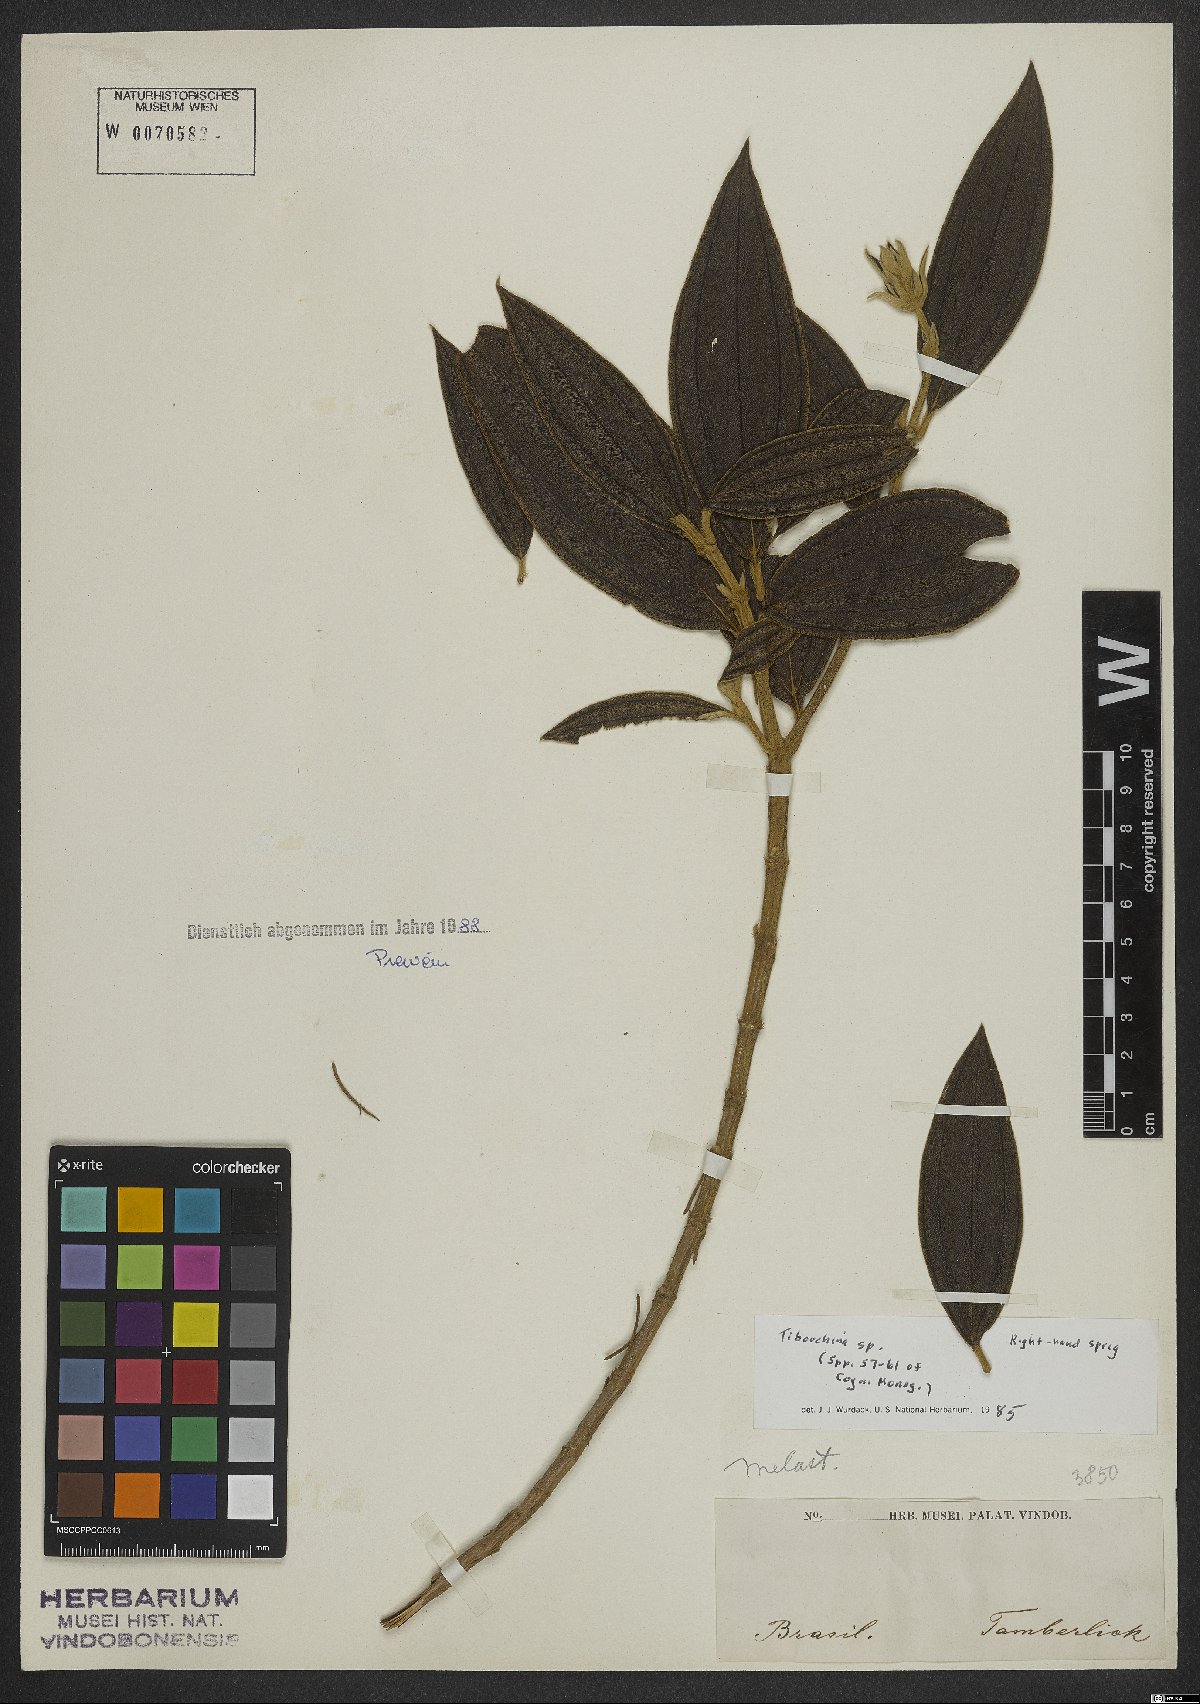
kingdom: Plantae
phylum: Tracheophyta
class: Magnoliopsida
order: Myrtales
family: Melastomataceae
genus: Tibouchina
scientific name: Tibouchina
